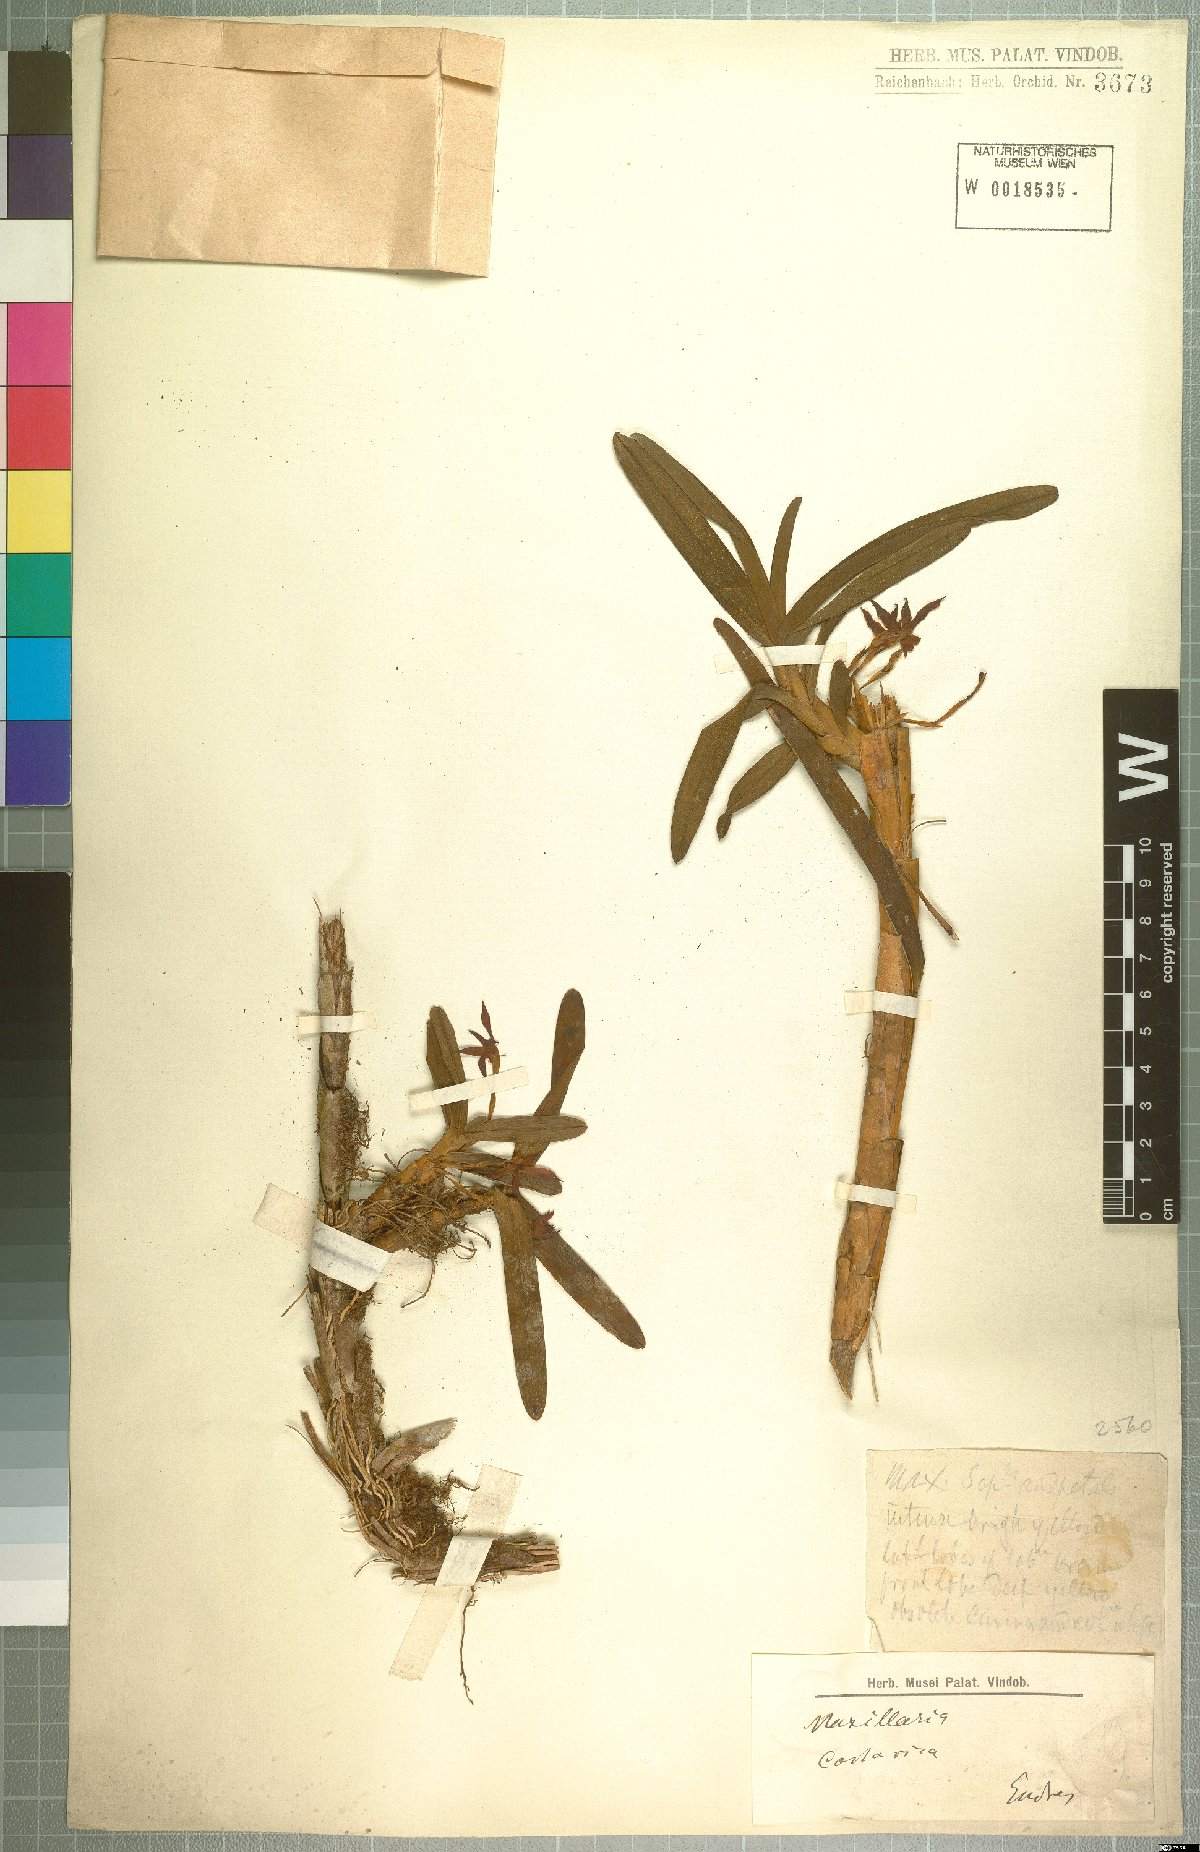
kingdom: Plantae
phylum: Tracheophyta
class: Liliopsida
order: Asparagales
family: Orchidaceae
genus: Maxillaria
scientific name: Maxillaria
